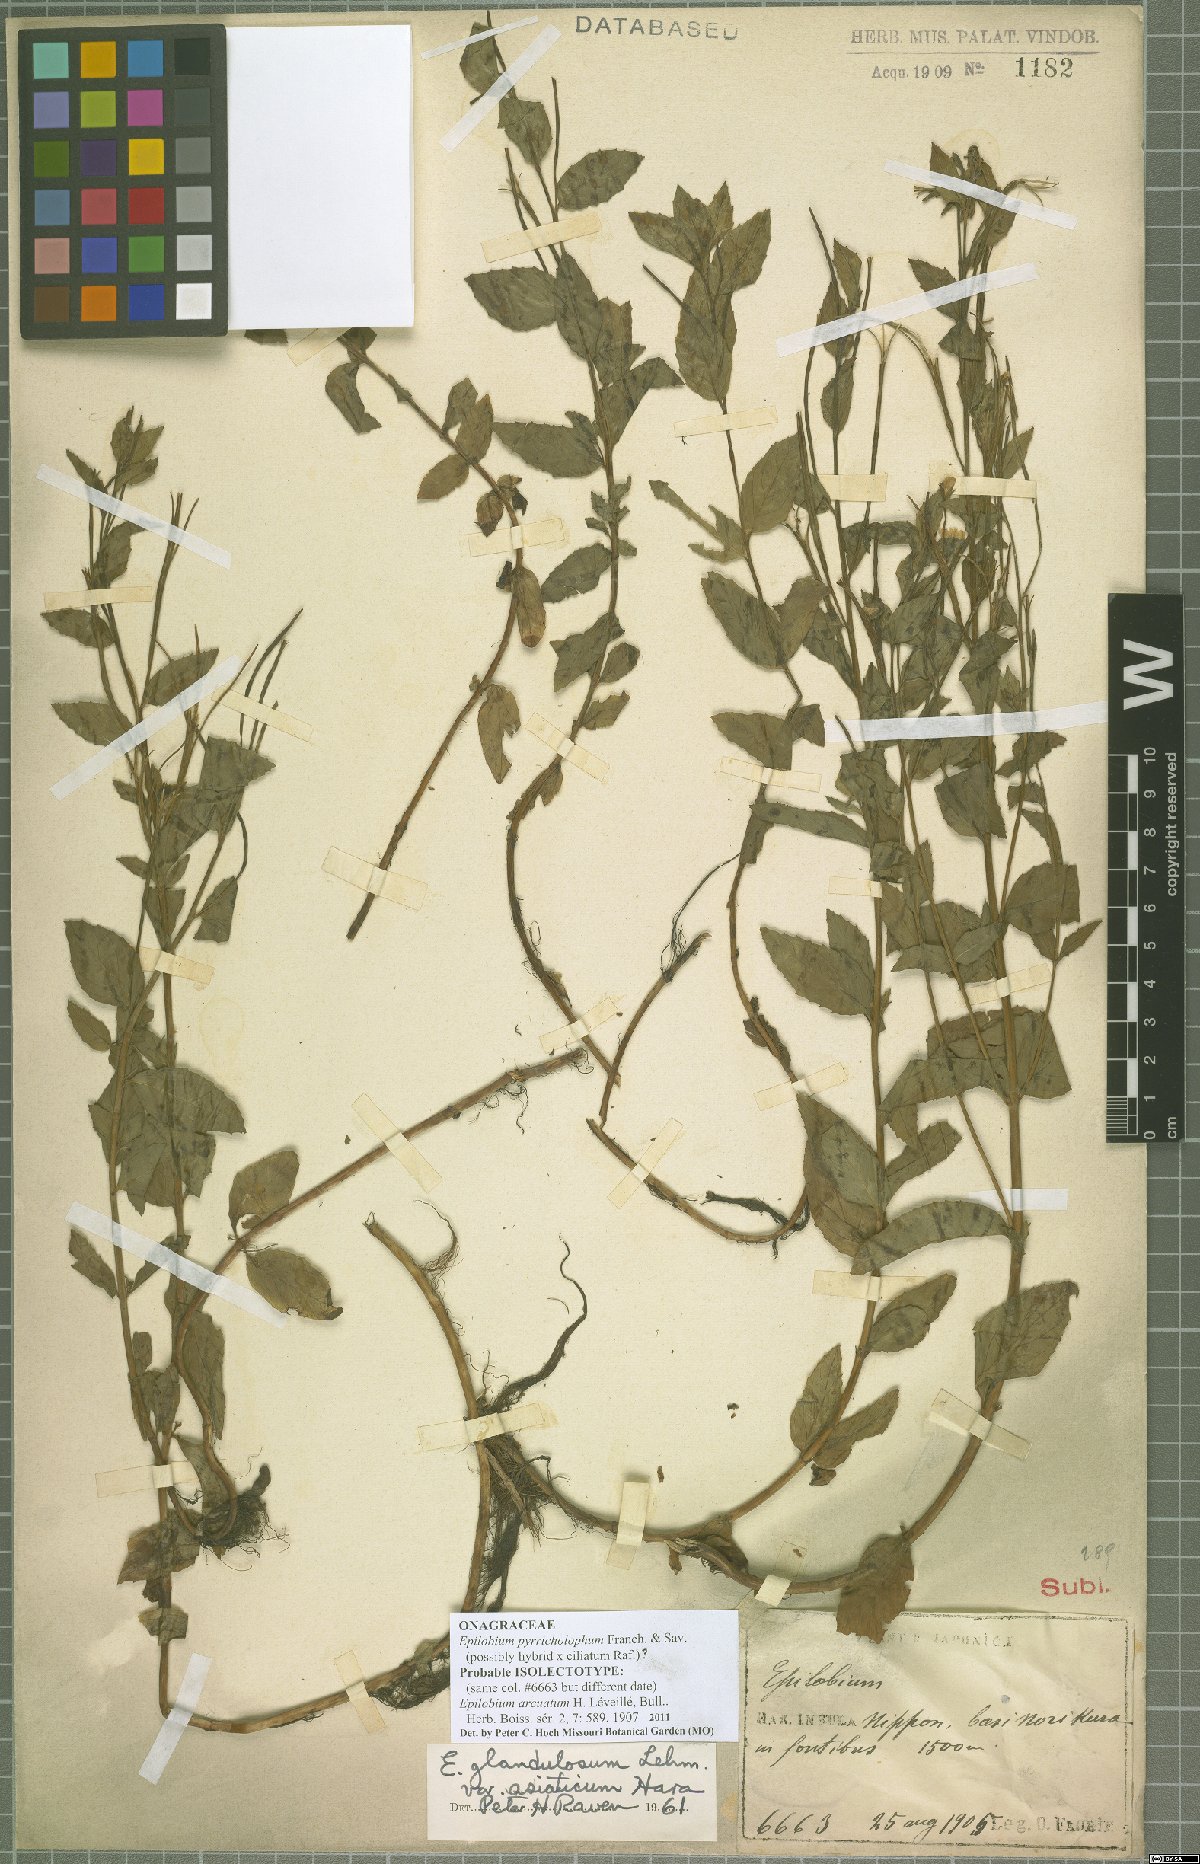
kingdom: Plantae
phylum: Tracheophyta
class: Magnoliopsida
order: Myrtales
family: Onagraceae
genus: Epilobium
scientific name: Epilobium pyrricholophum
